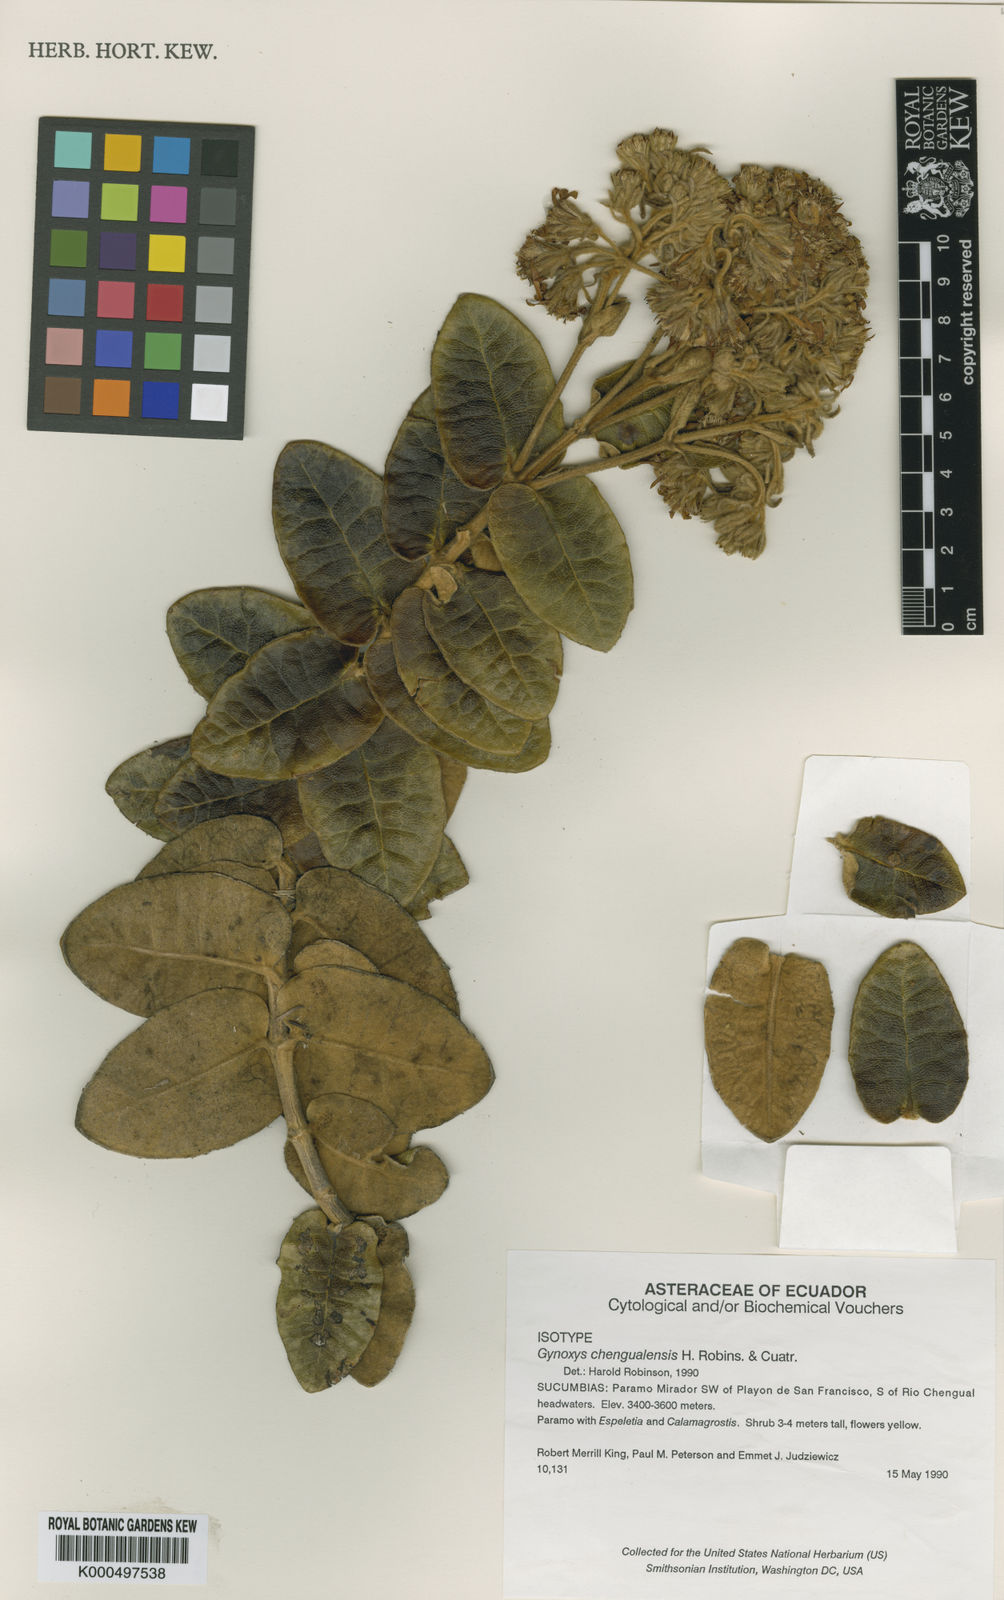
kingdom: Plantae
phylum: Tracheophyta
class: Magnoliopsida
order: Asterales
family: Asteraceae
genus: Gynoxys
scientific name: Gynoxys chagalensis
